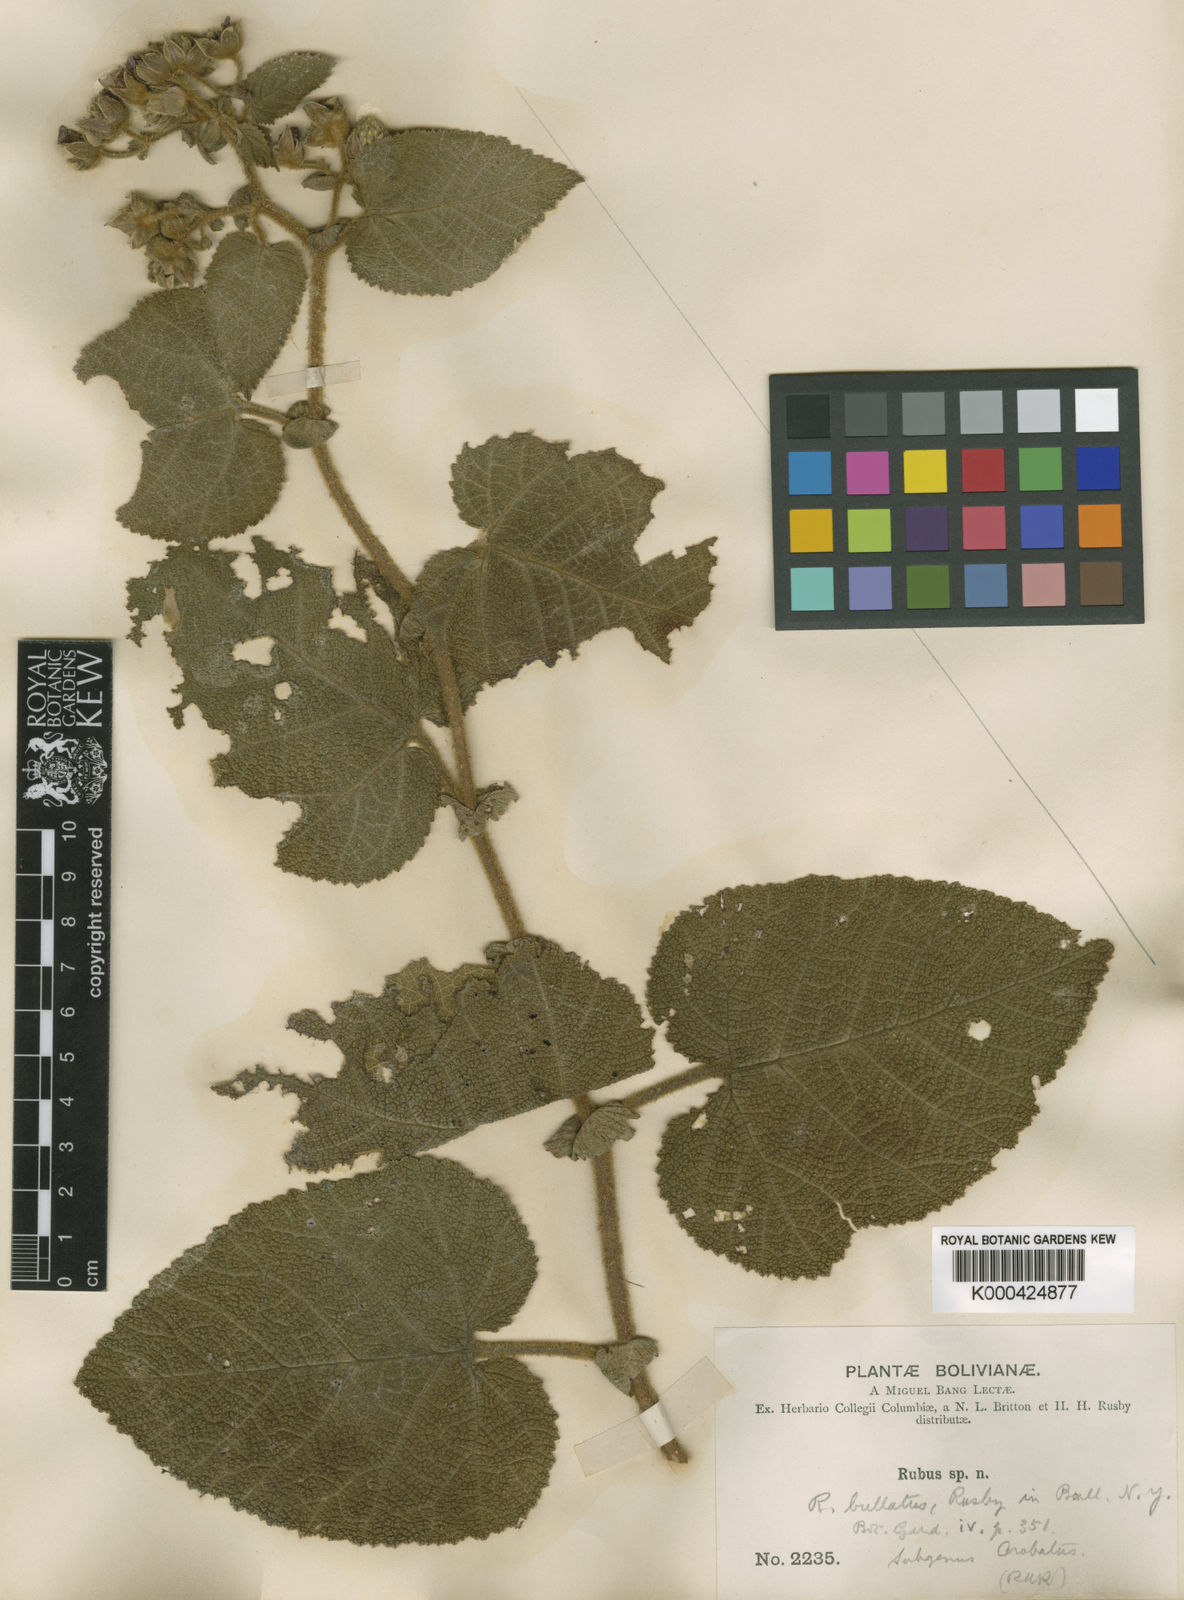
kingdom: Plantae
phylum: Tracheophyta
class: Magnoliopsida
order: Rosales
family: Rosaceae
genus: Rubus
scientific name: Rubus bullatus
